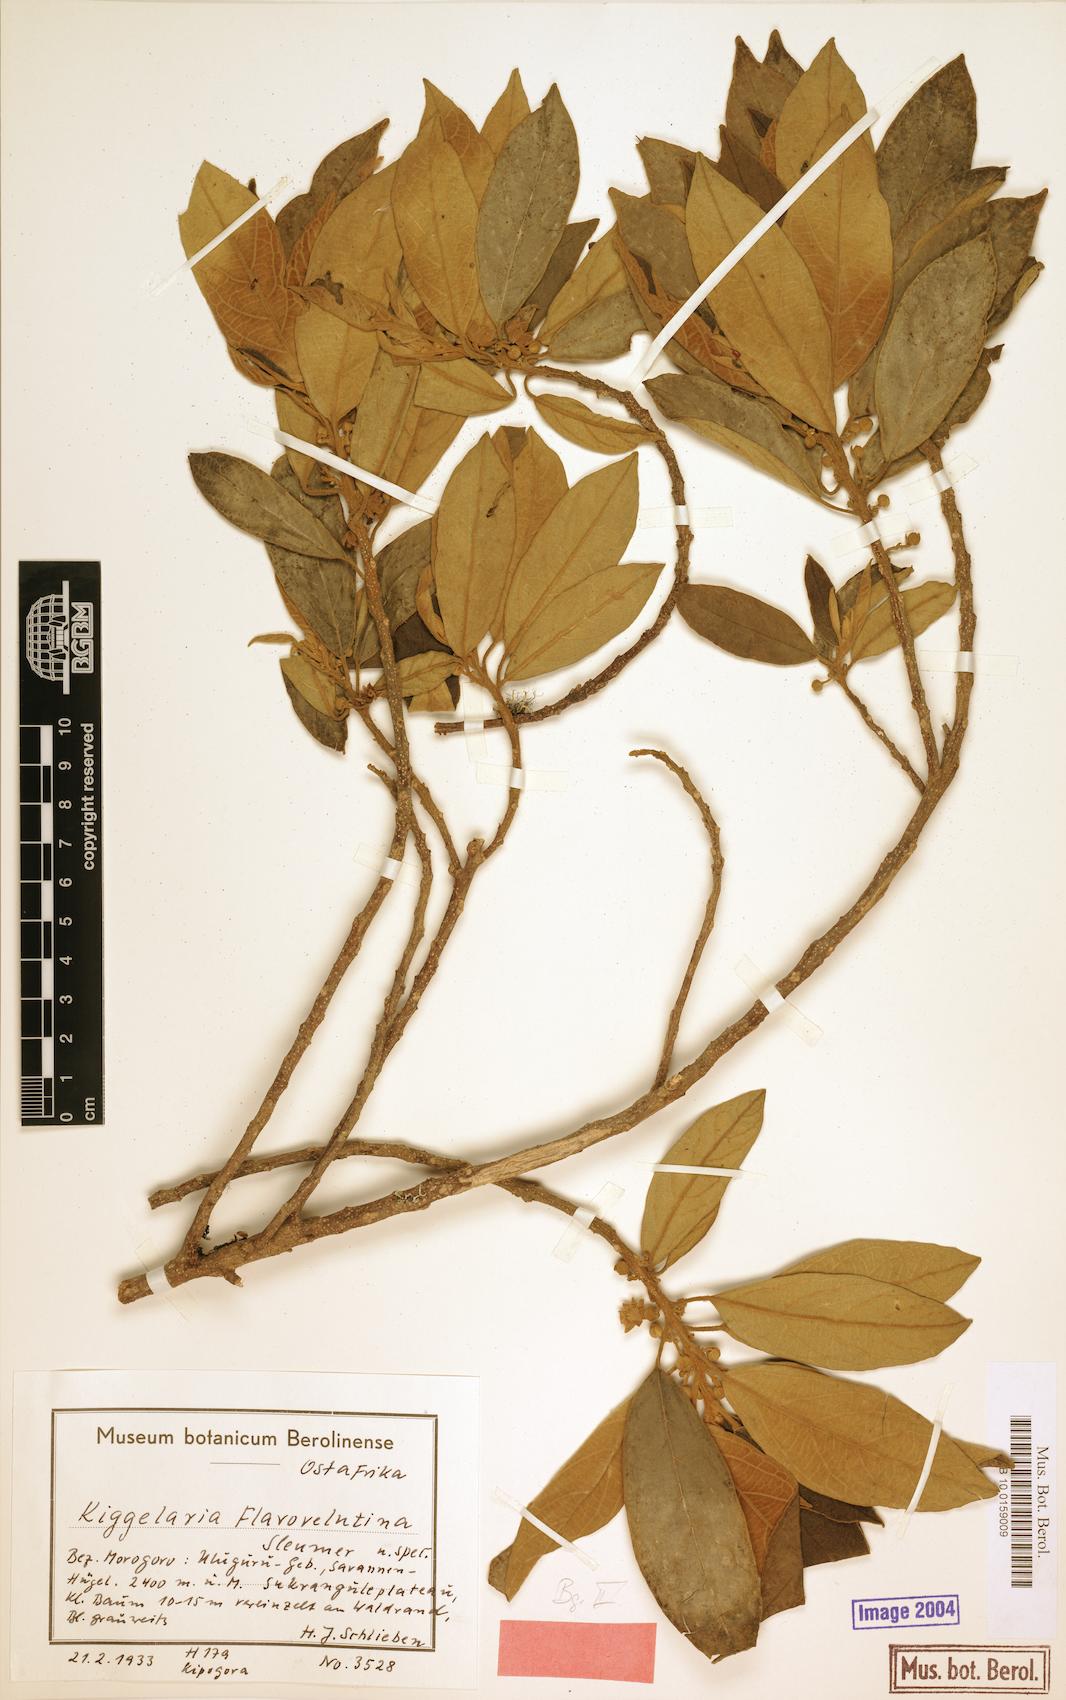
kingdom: Plantae
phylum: Tracheophyta
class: Magnoliopsida
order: Malpighiales
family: Achariaceae
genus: Kiggelaria
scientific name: Kiggelaria africana
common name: Wild peach
